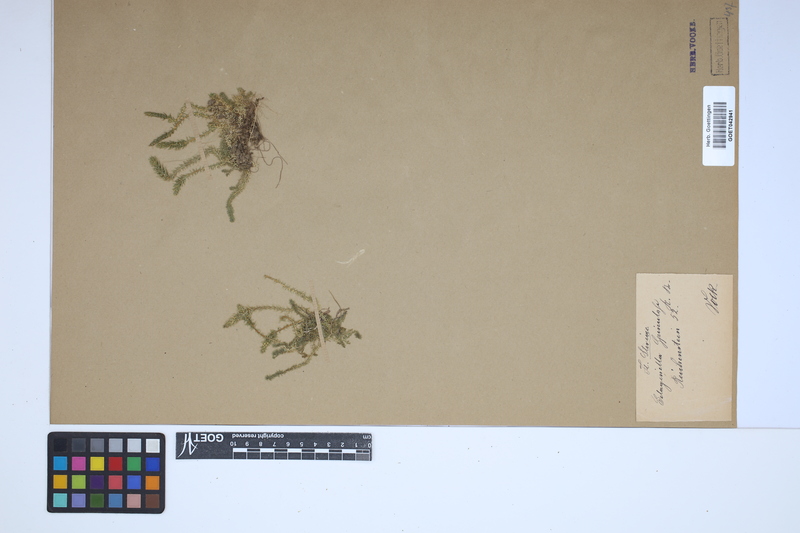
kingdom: Plantae
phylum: Tracheophyta
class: Lycopodiopsida
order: Selaginellales
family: Selaginellaceae
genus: Selaginella
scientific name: Selaginella selaginoides
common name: Prickly mountain-moss
